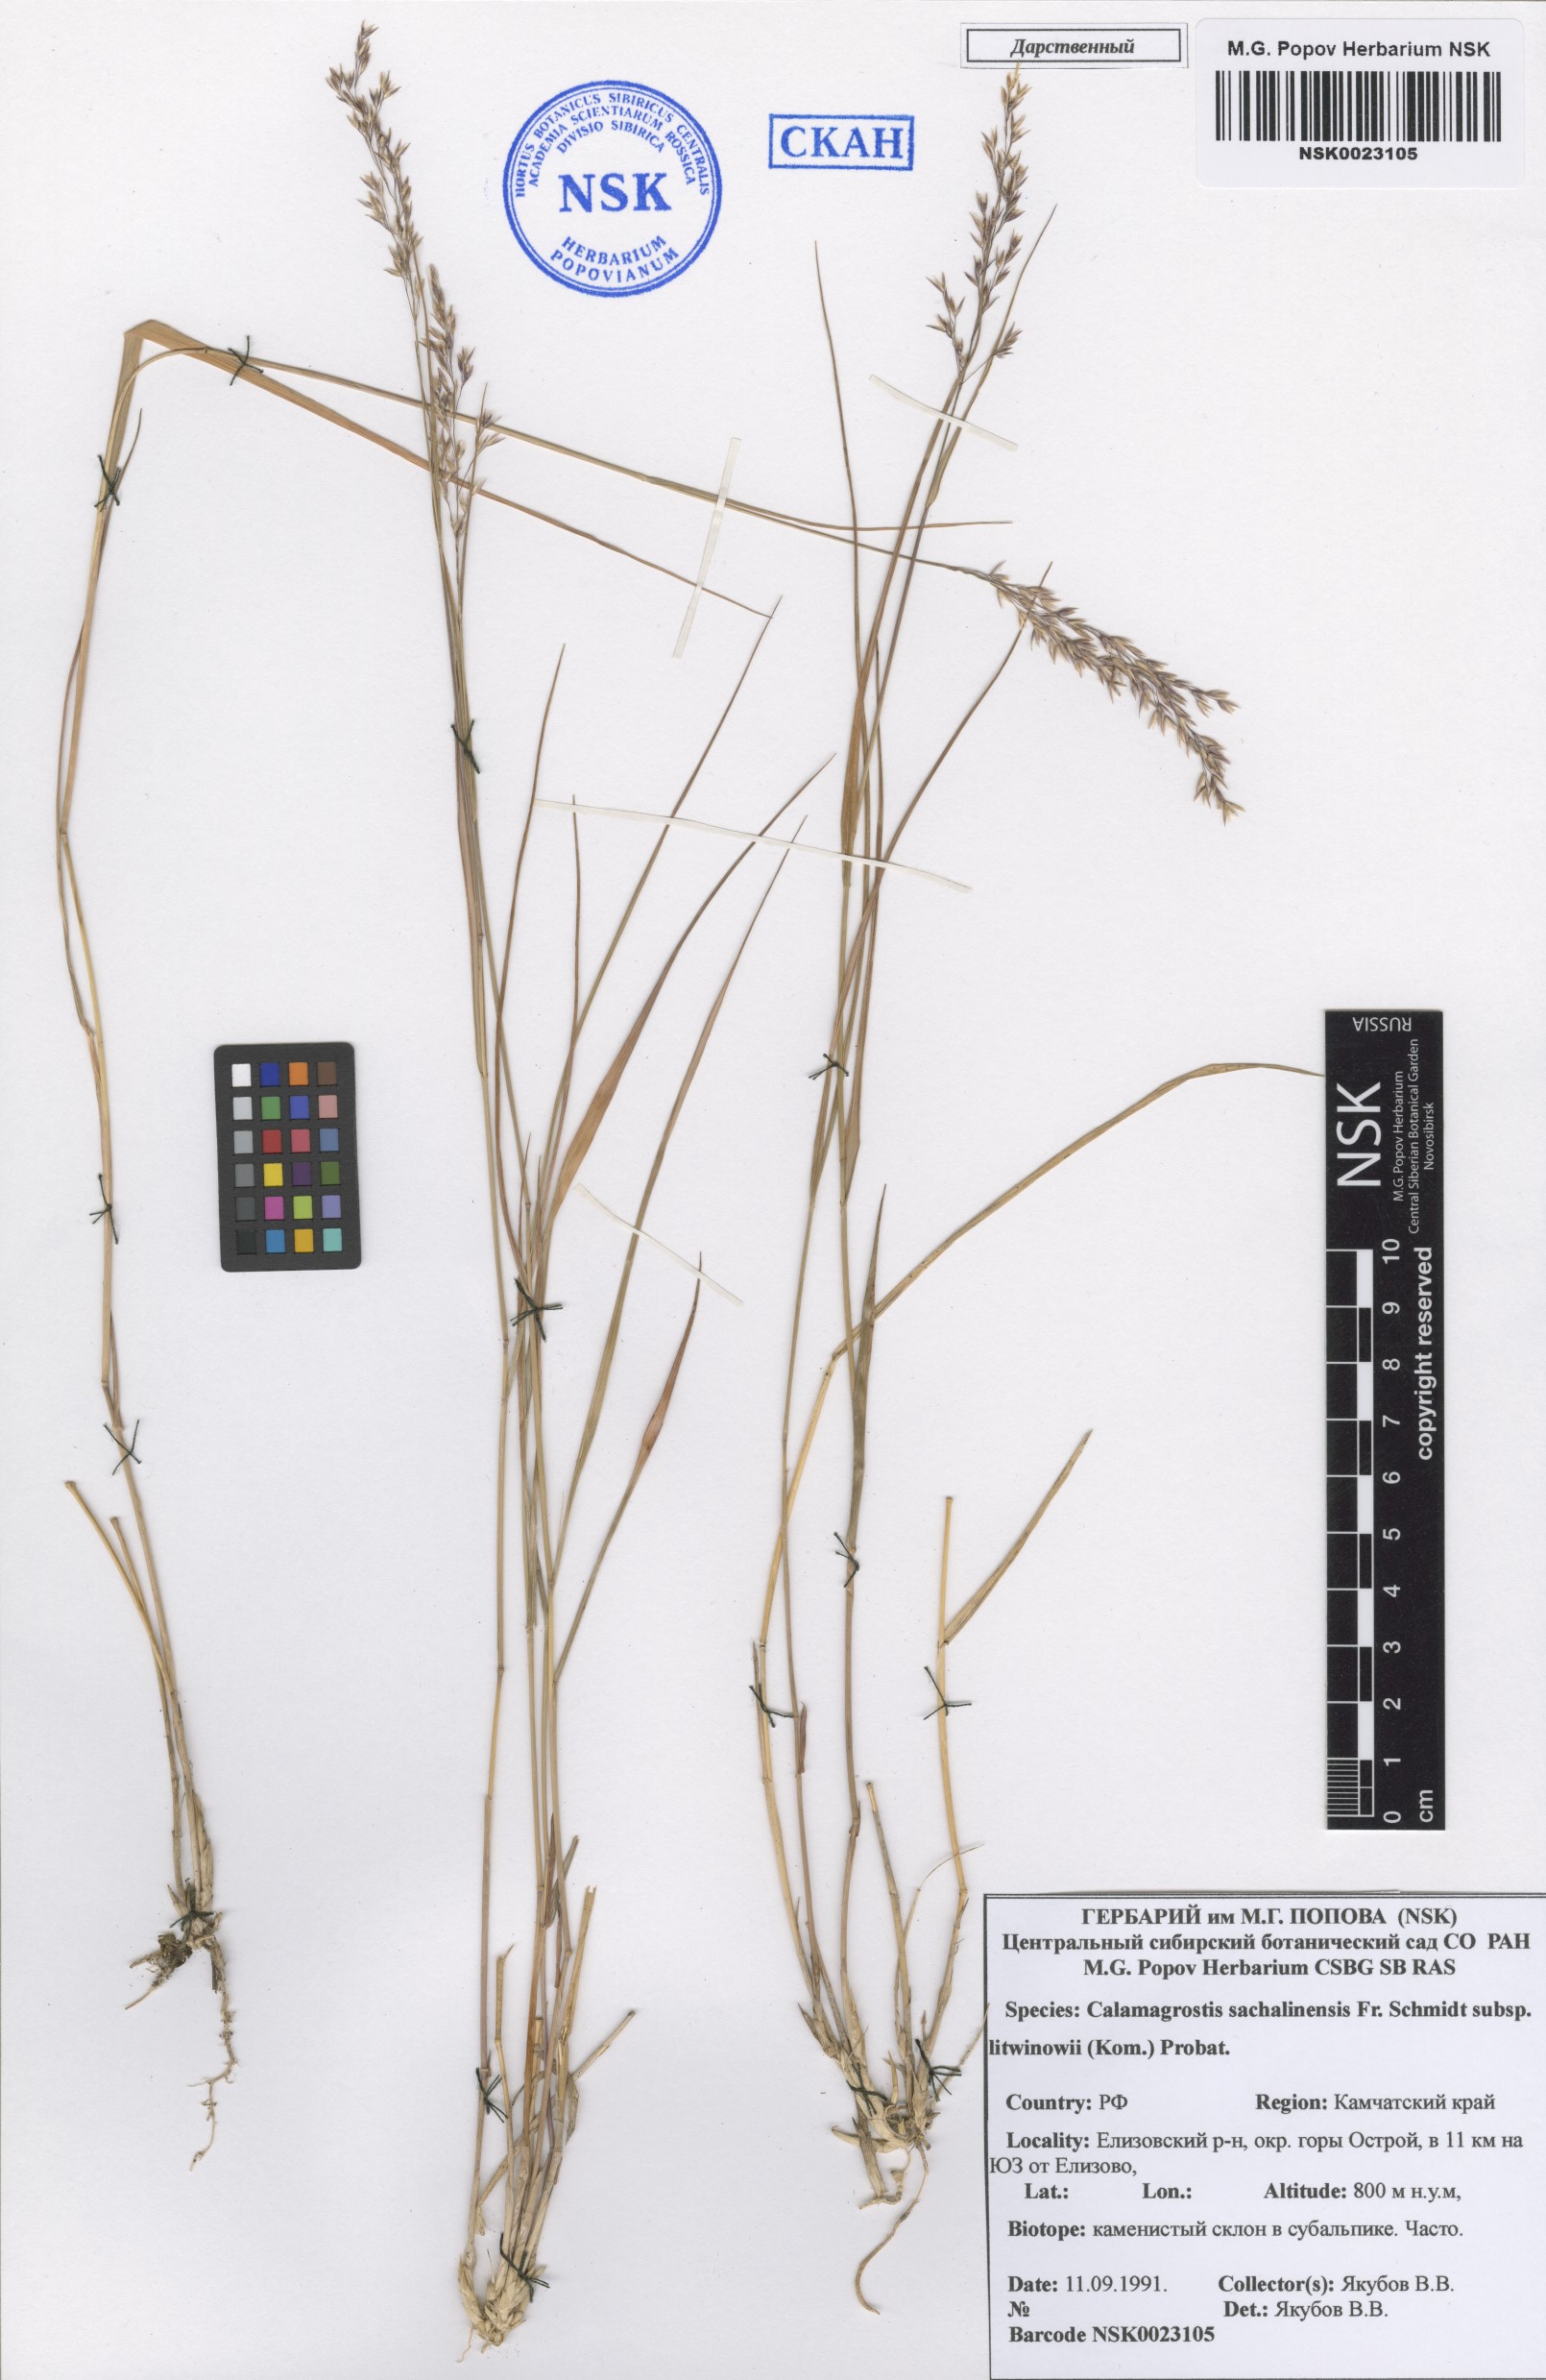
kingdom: Plantae
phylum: Tracheophyta
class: Liliopsida
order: Poales
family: Poaceae
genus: Calamagrostis
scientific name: Calamagrostis sachalinensis
